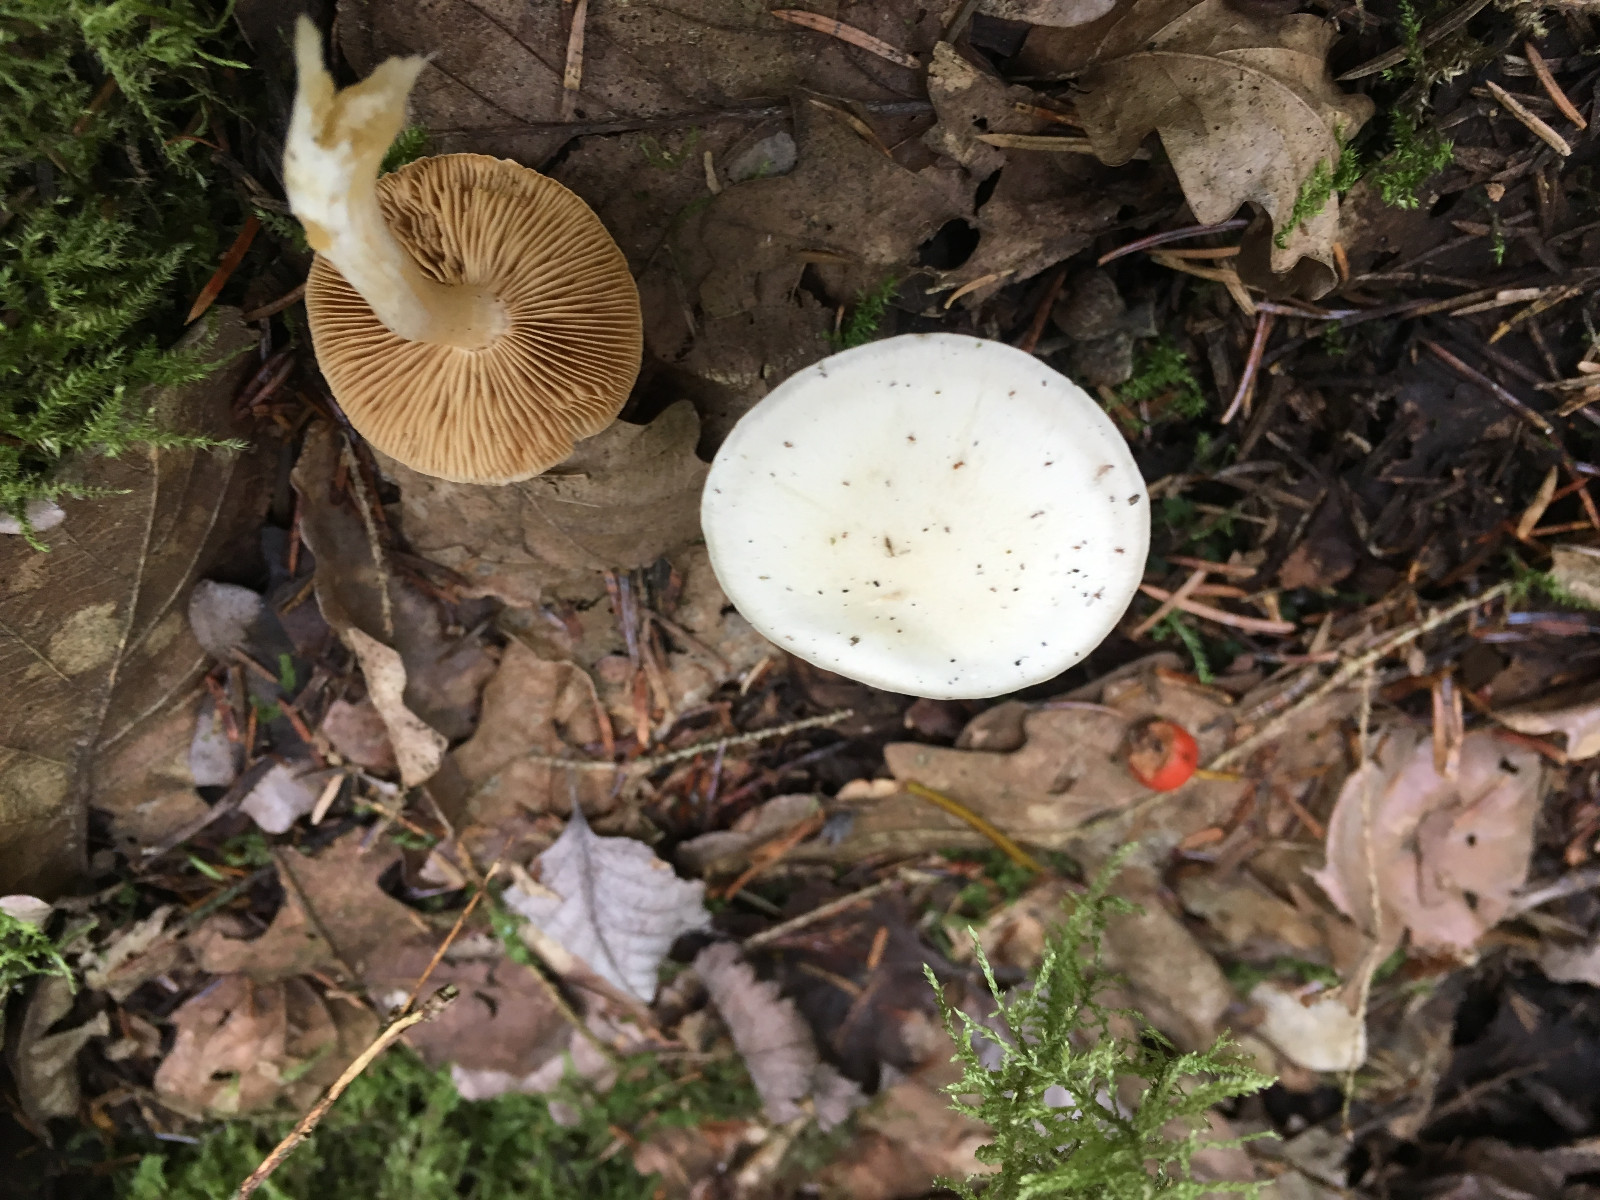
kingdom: Fungi
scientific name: Fungi
